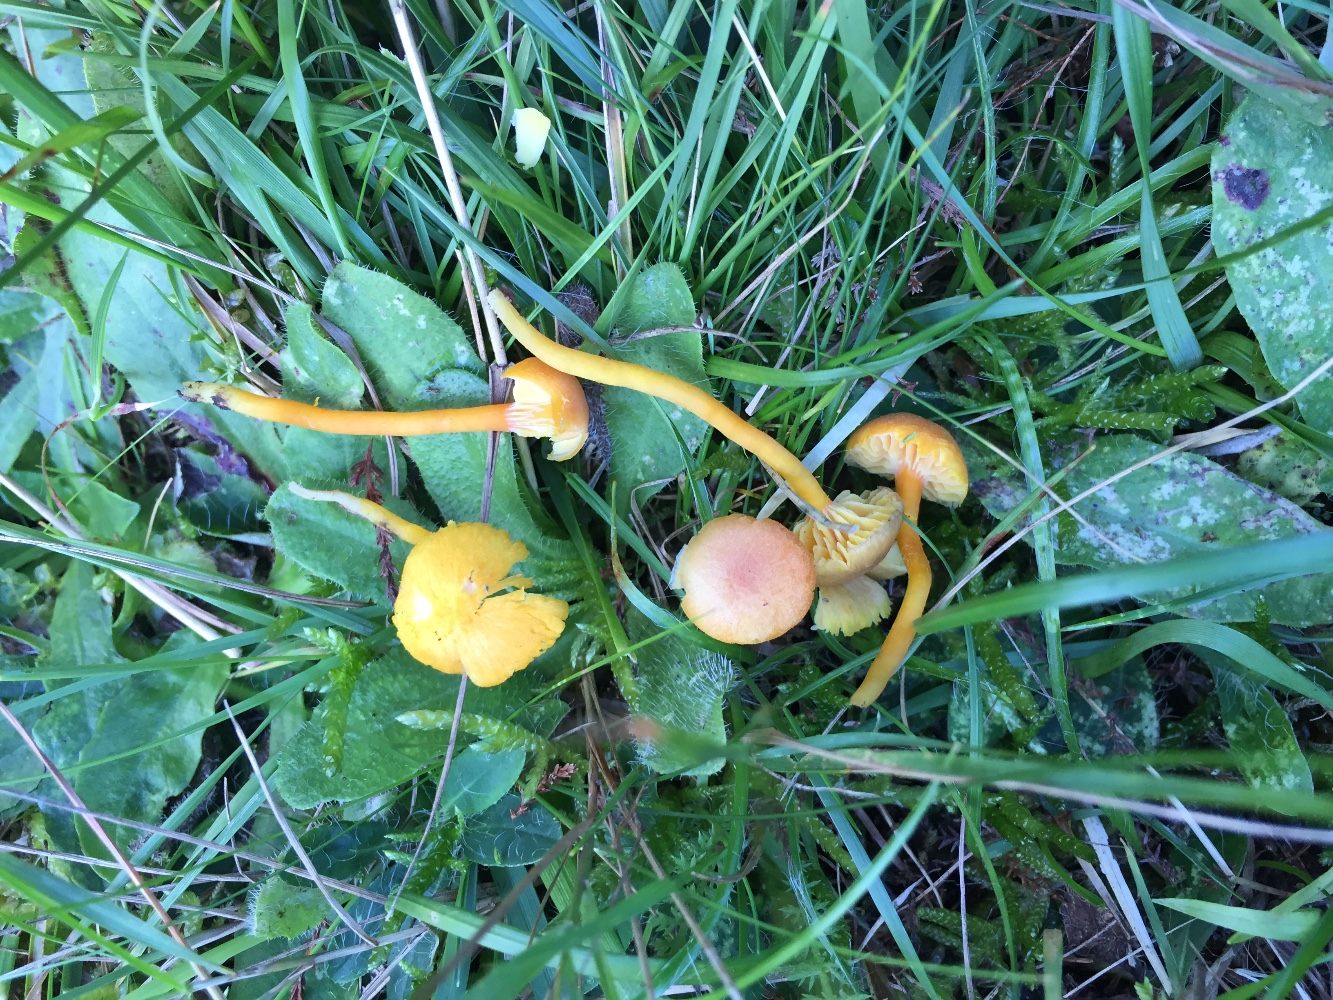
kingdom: Fungi
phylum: Basidiomycota
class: Agaricomycetes
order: Agaricales
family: Hygrophoraceae
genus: Hygrocybe
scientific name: Hygrocybe miniata
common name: mønje-vokshat
